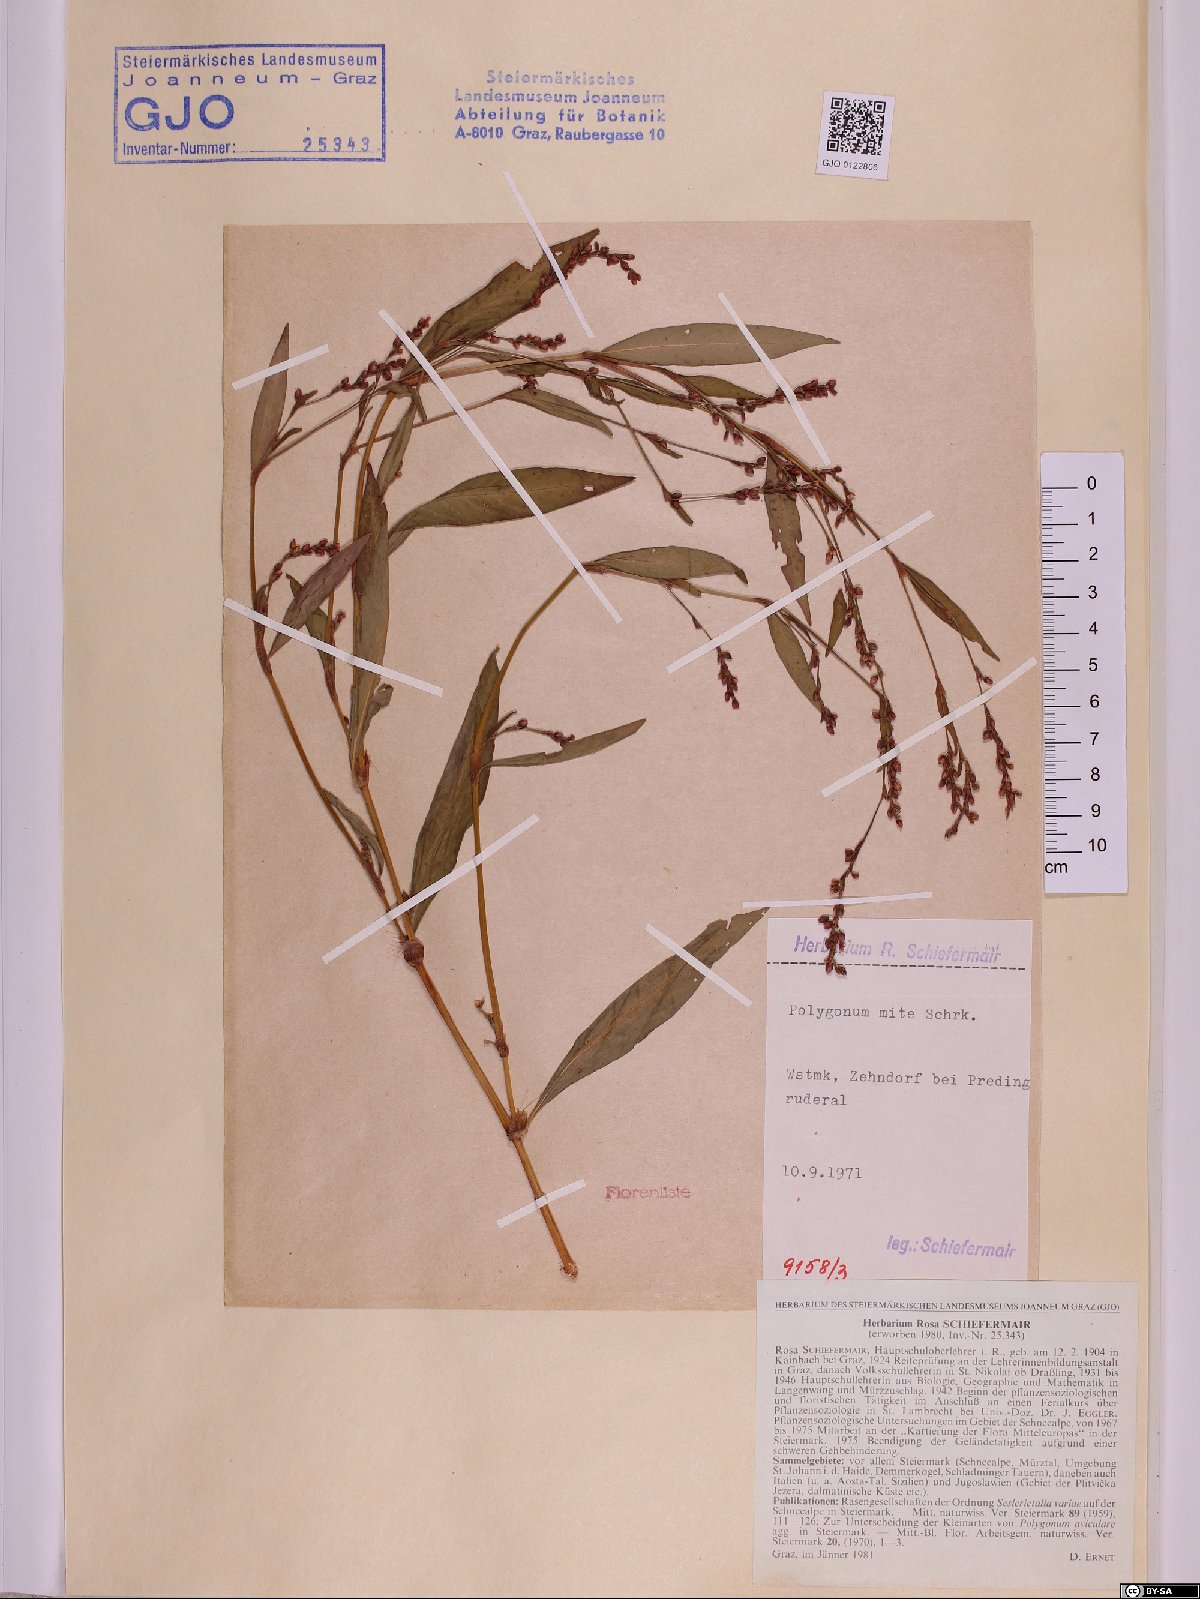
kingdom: Plantae
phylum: Tracheophyta
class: Magnoliopsida
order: Caryophyllales
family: Polygonaceae
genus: Persicaria
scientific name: Persicaria mitis
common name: Tasteless water-pepper
